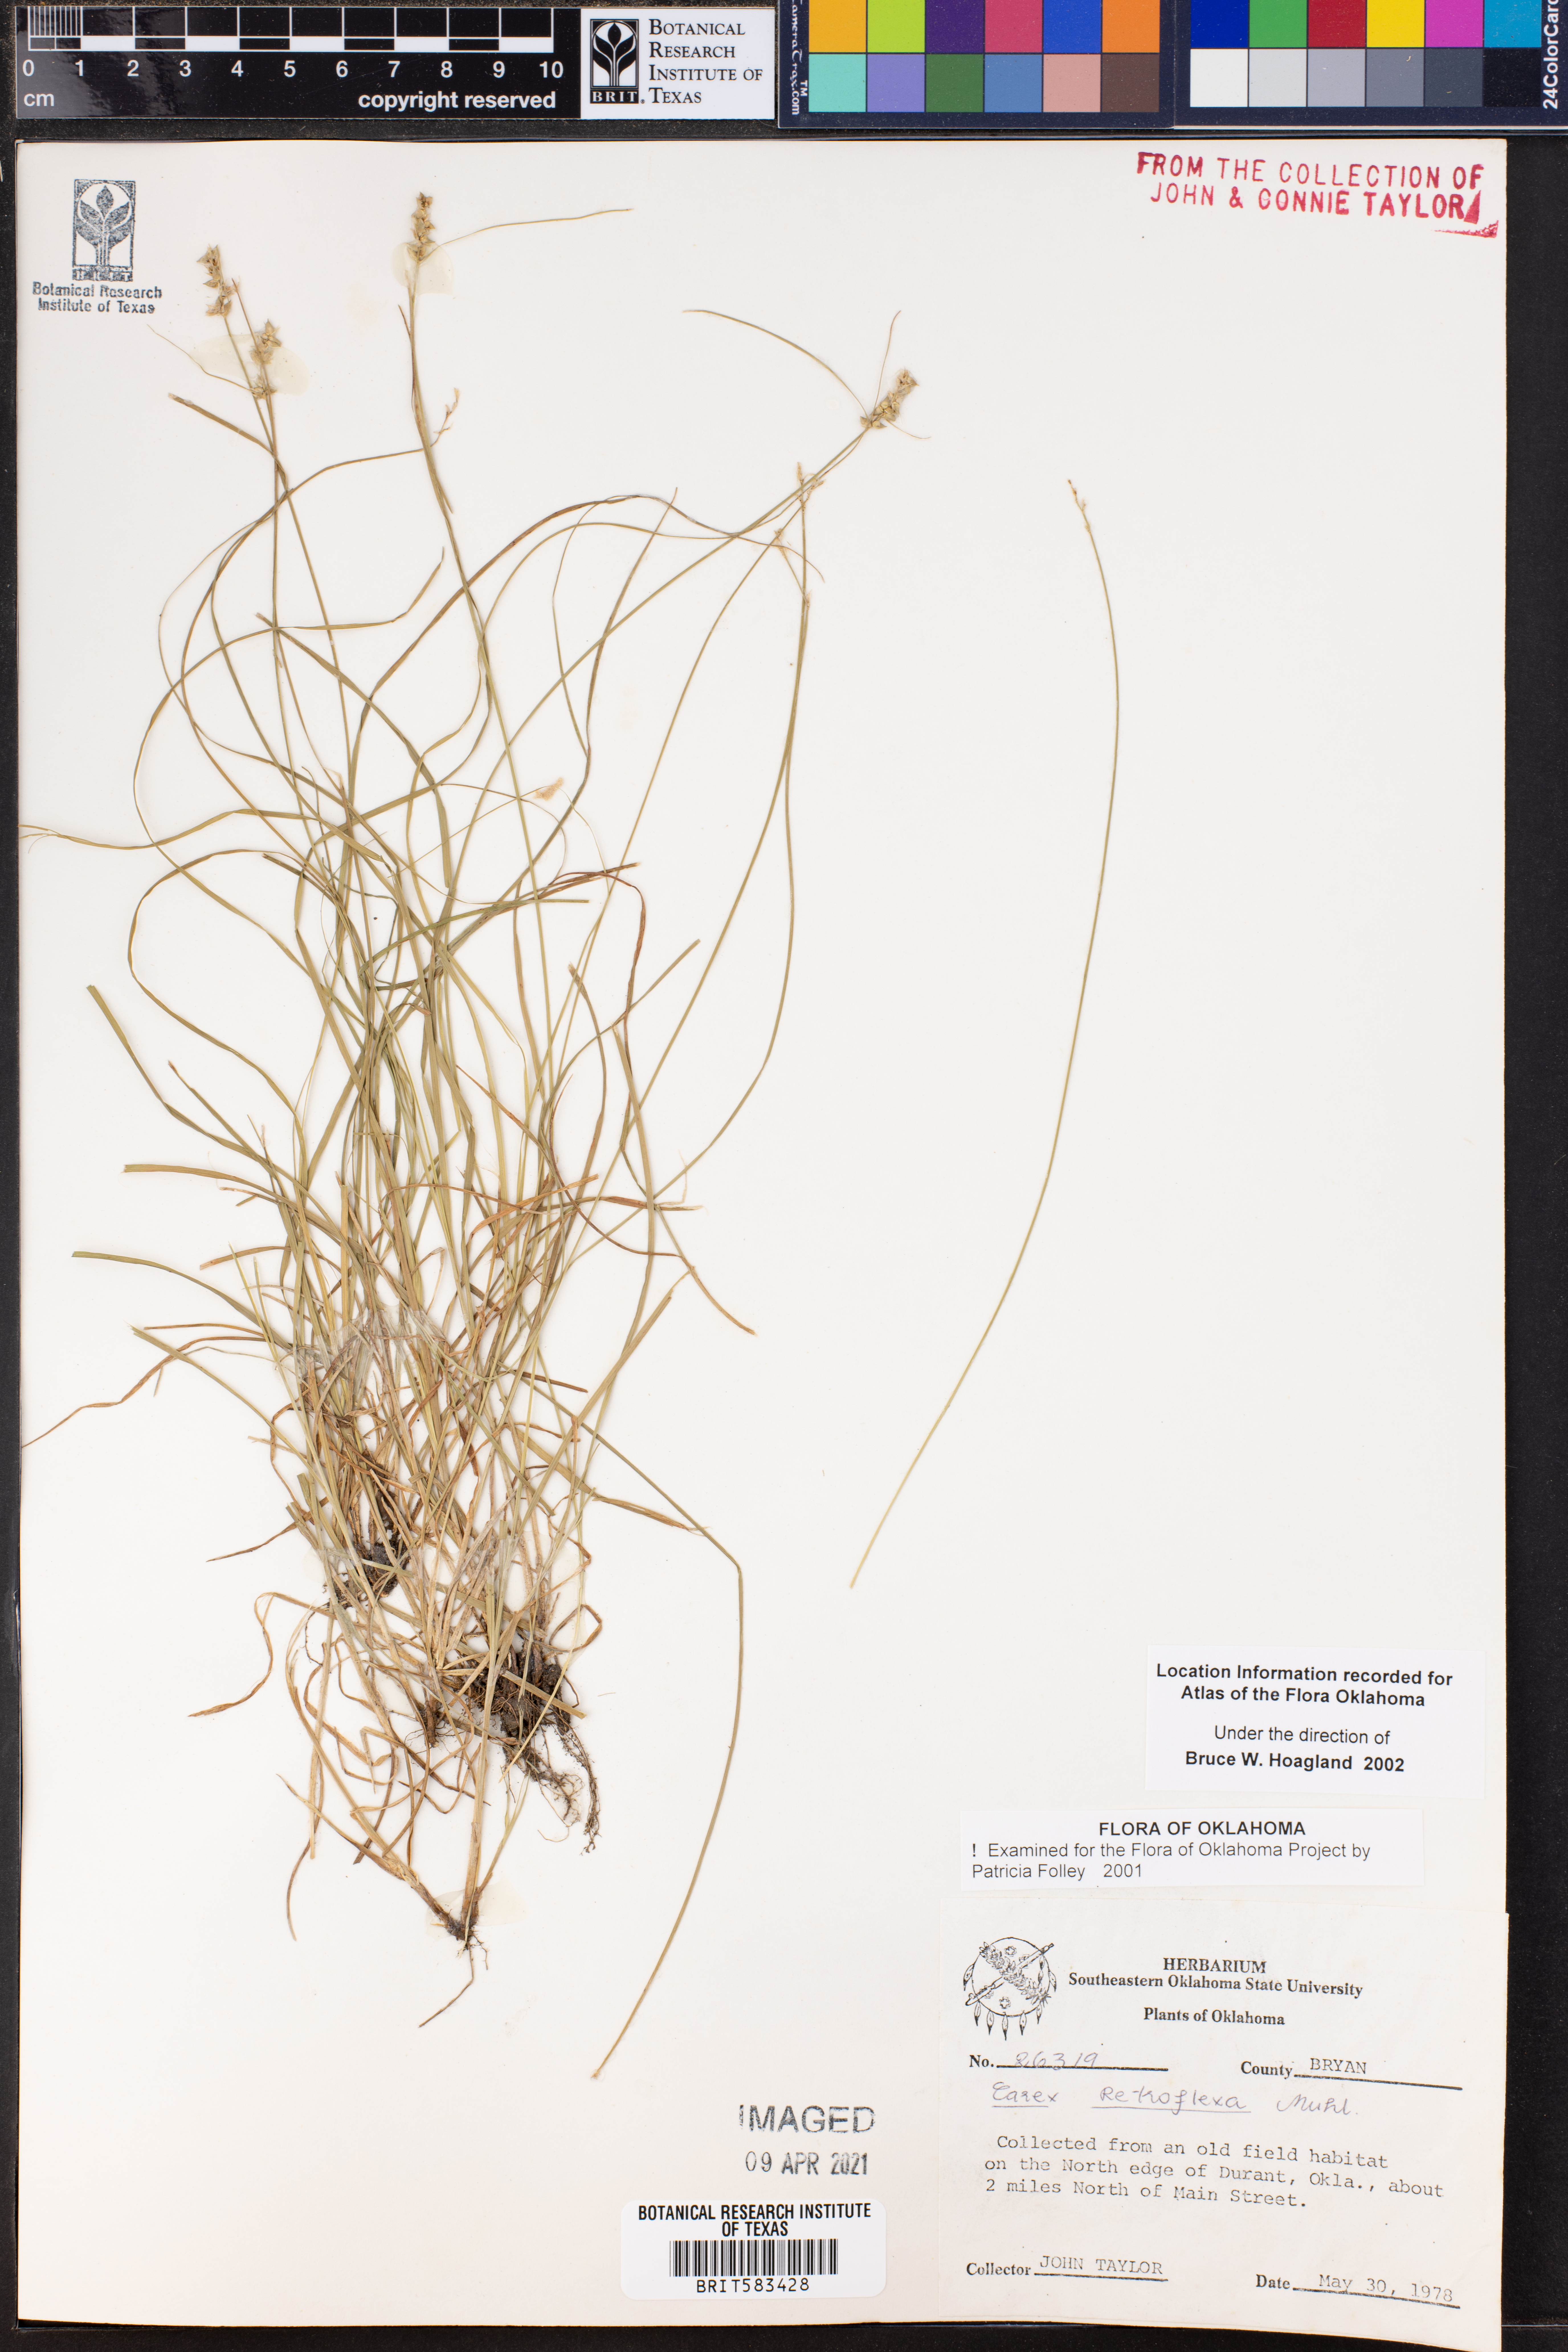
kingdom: Plantae
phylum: Tracheophyta
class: Liliopsida
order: Poales
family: Cyperaceae
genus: Carex
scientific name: Carex retroflexa
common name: Reflexed sedge
